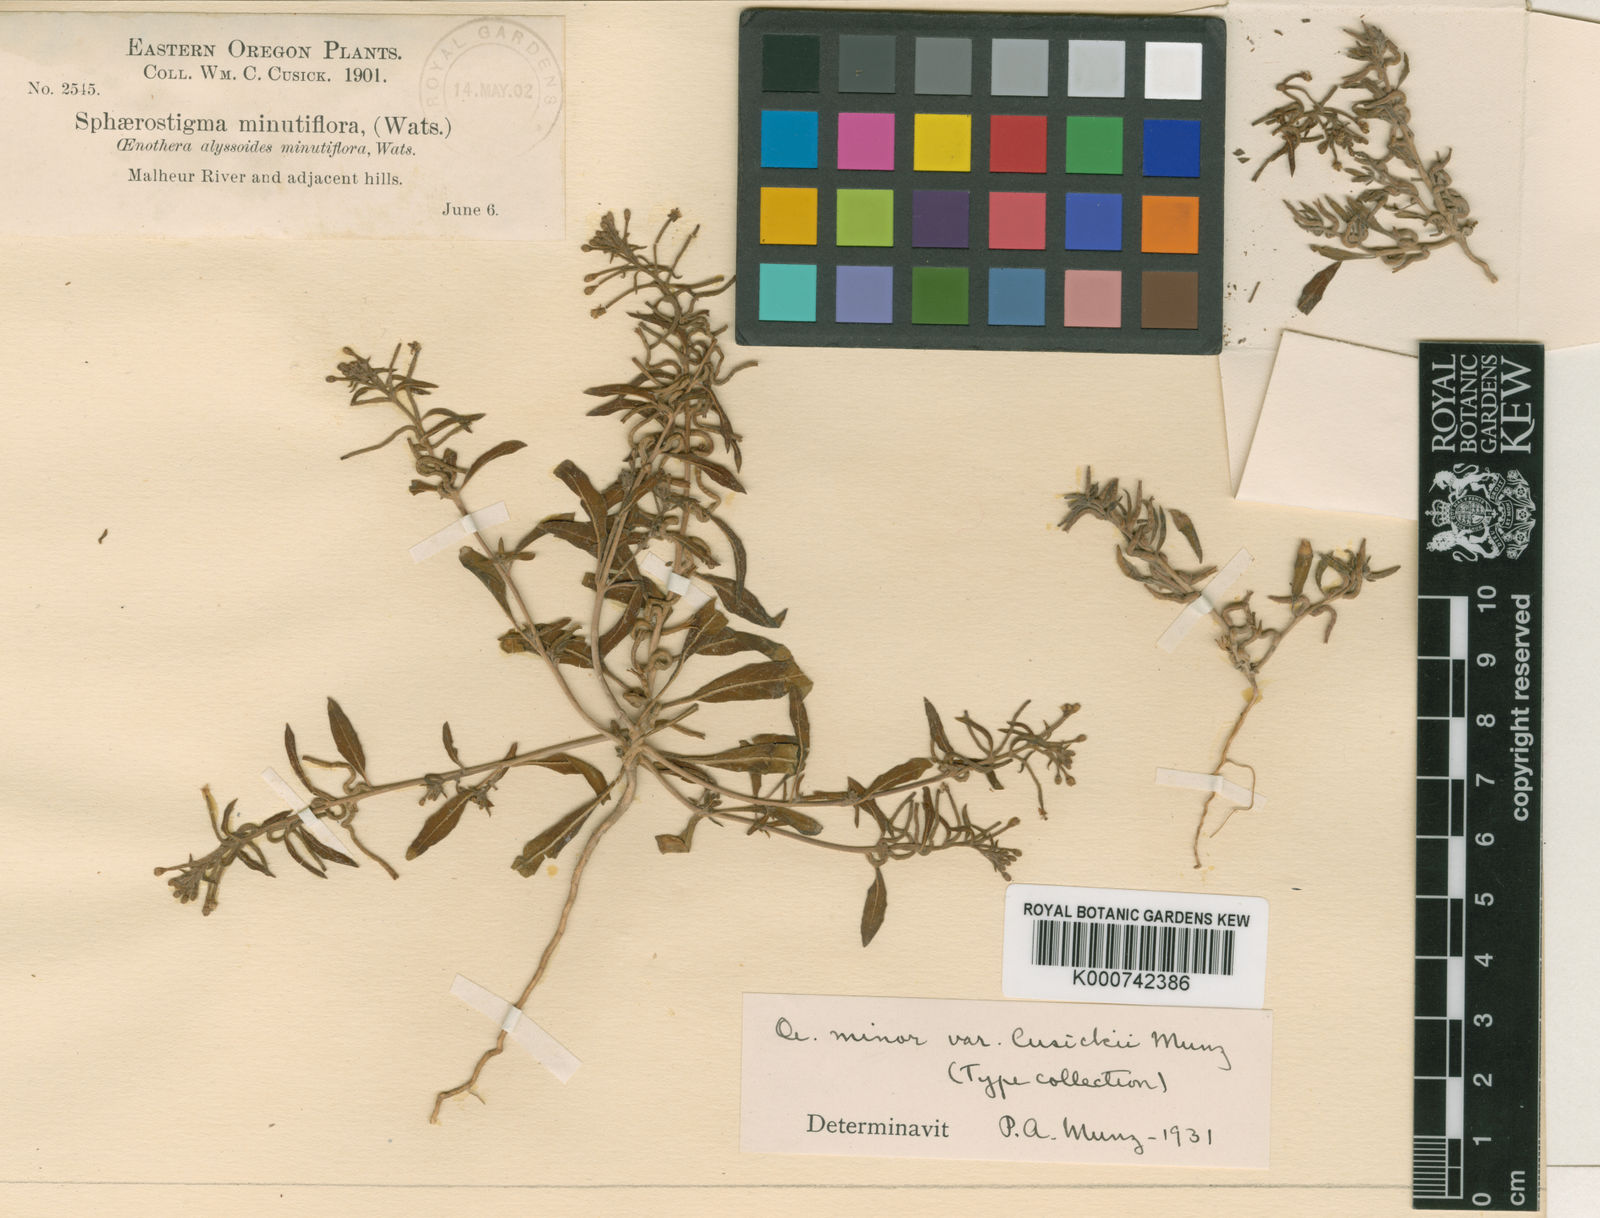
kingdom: Plantae
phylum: Tracheophyta
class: Magnoliopsida
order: Myrtales
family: Onagraceae
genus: Eremothera
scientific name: Eremothera minor
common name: Small evening primrose
